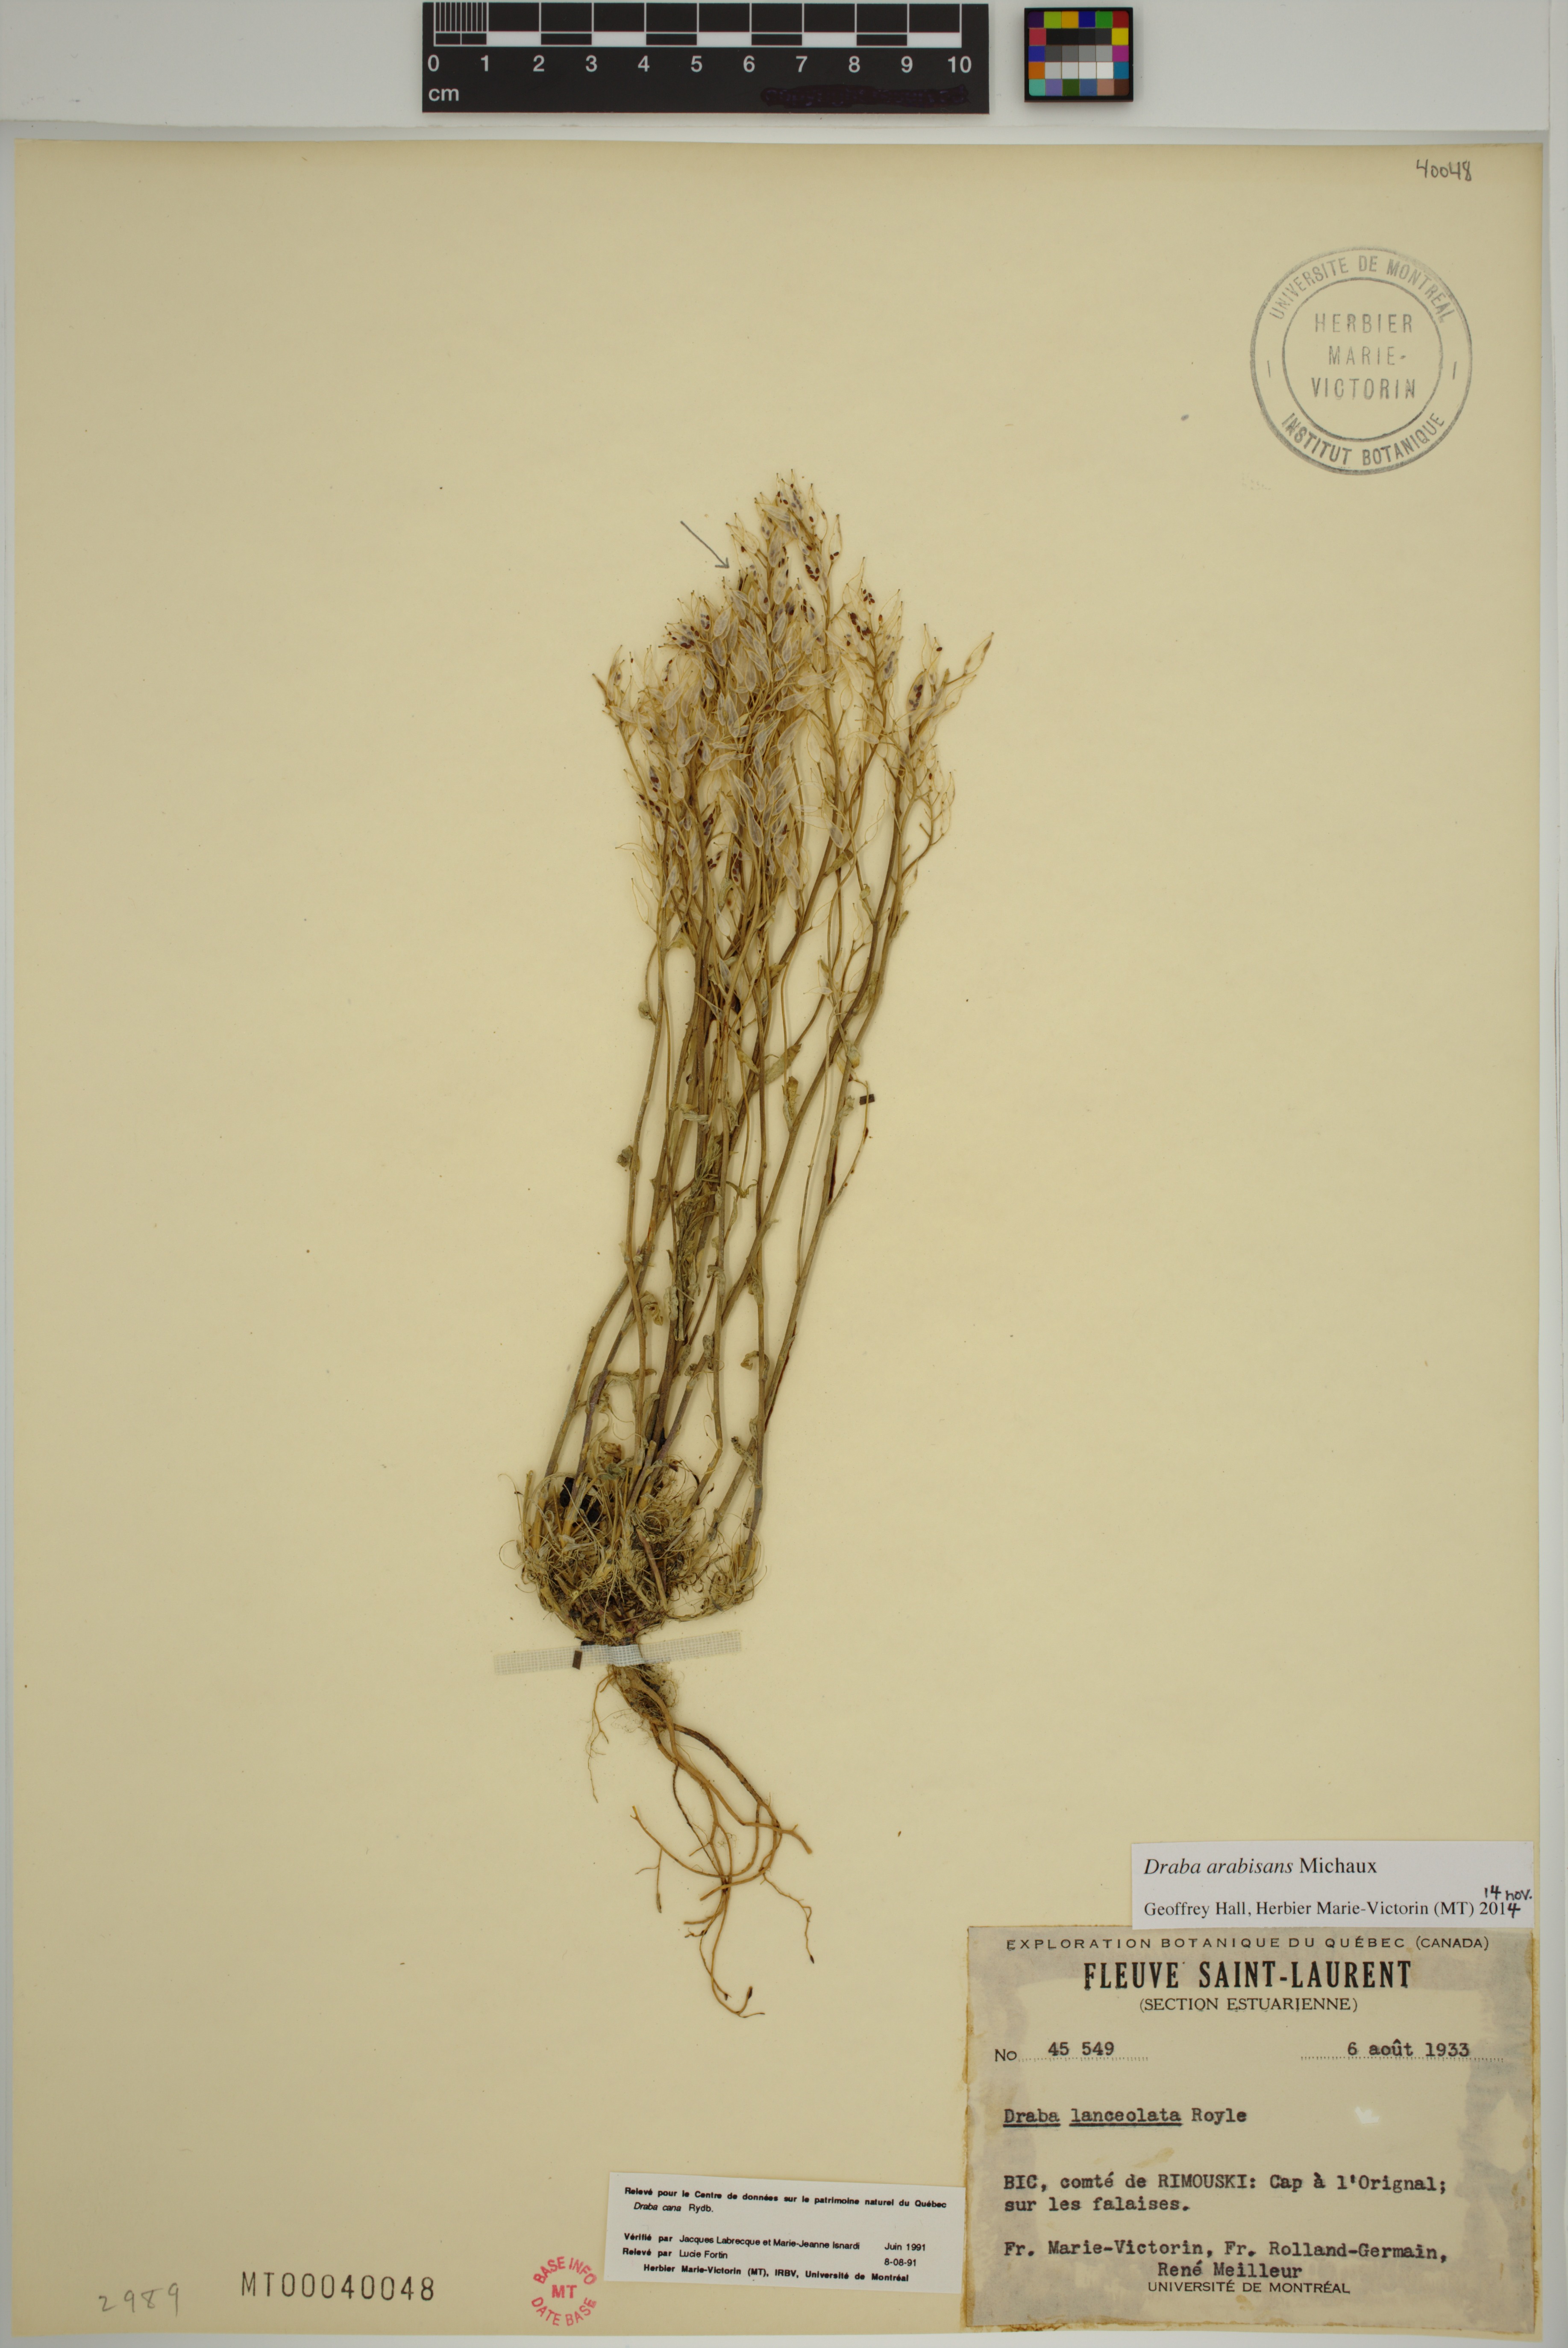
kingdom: Plantae
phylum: Tracheophyta
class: Magnoliopsida
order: Brassicales
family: Brassicaceae
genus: Draba
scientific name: Draba arabisans
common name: Rock draba
